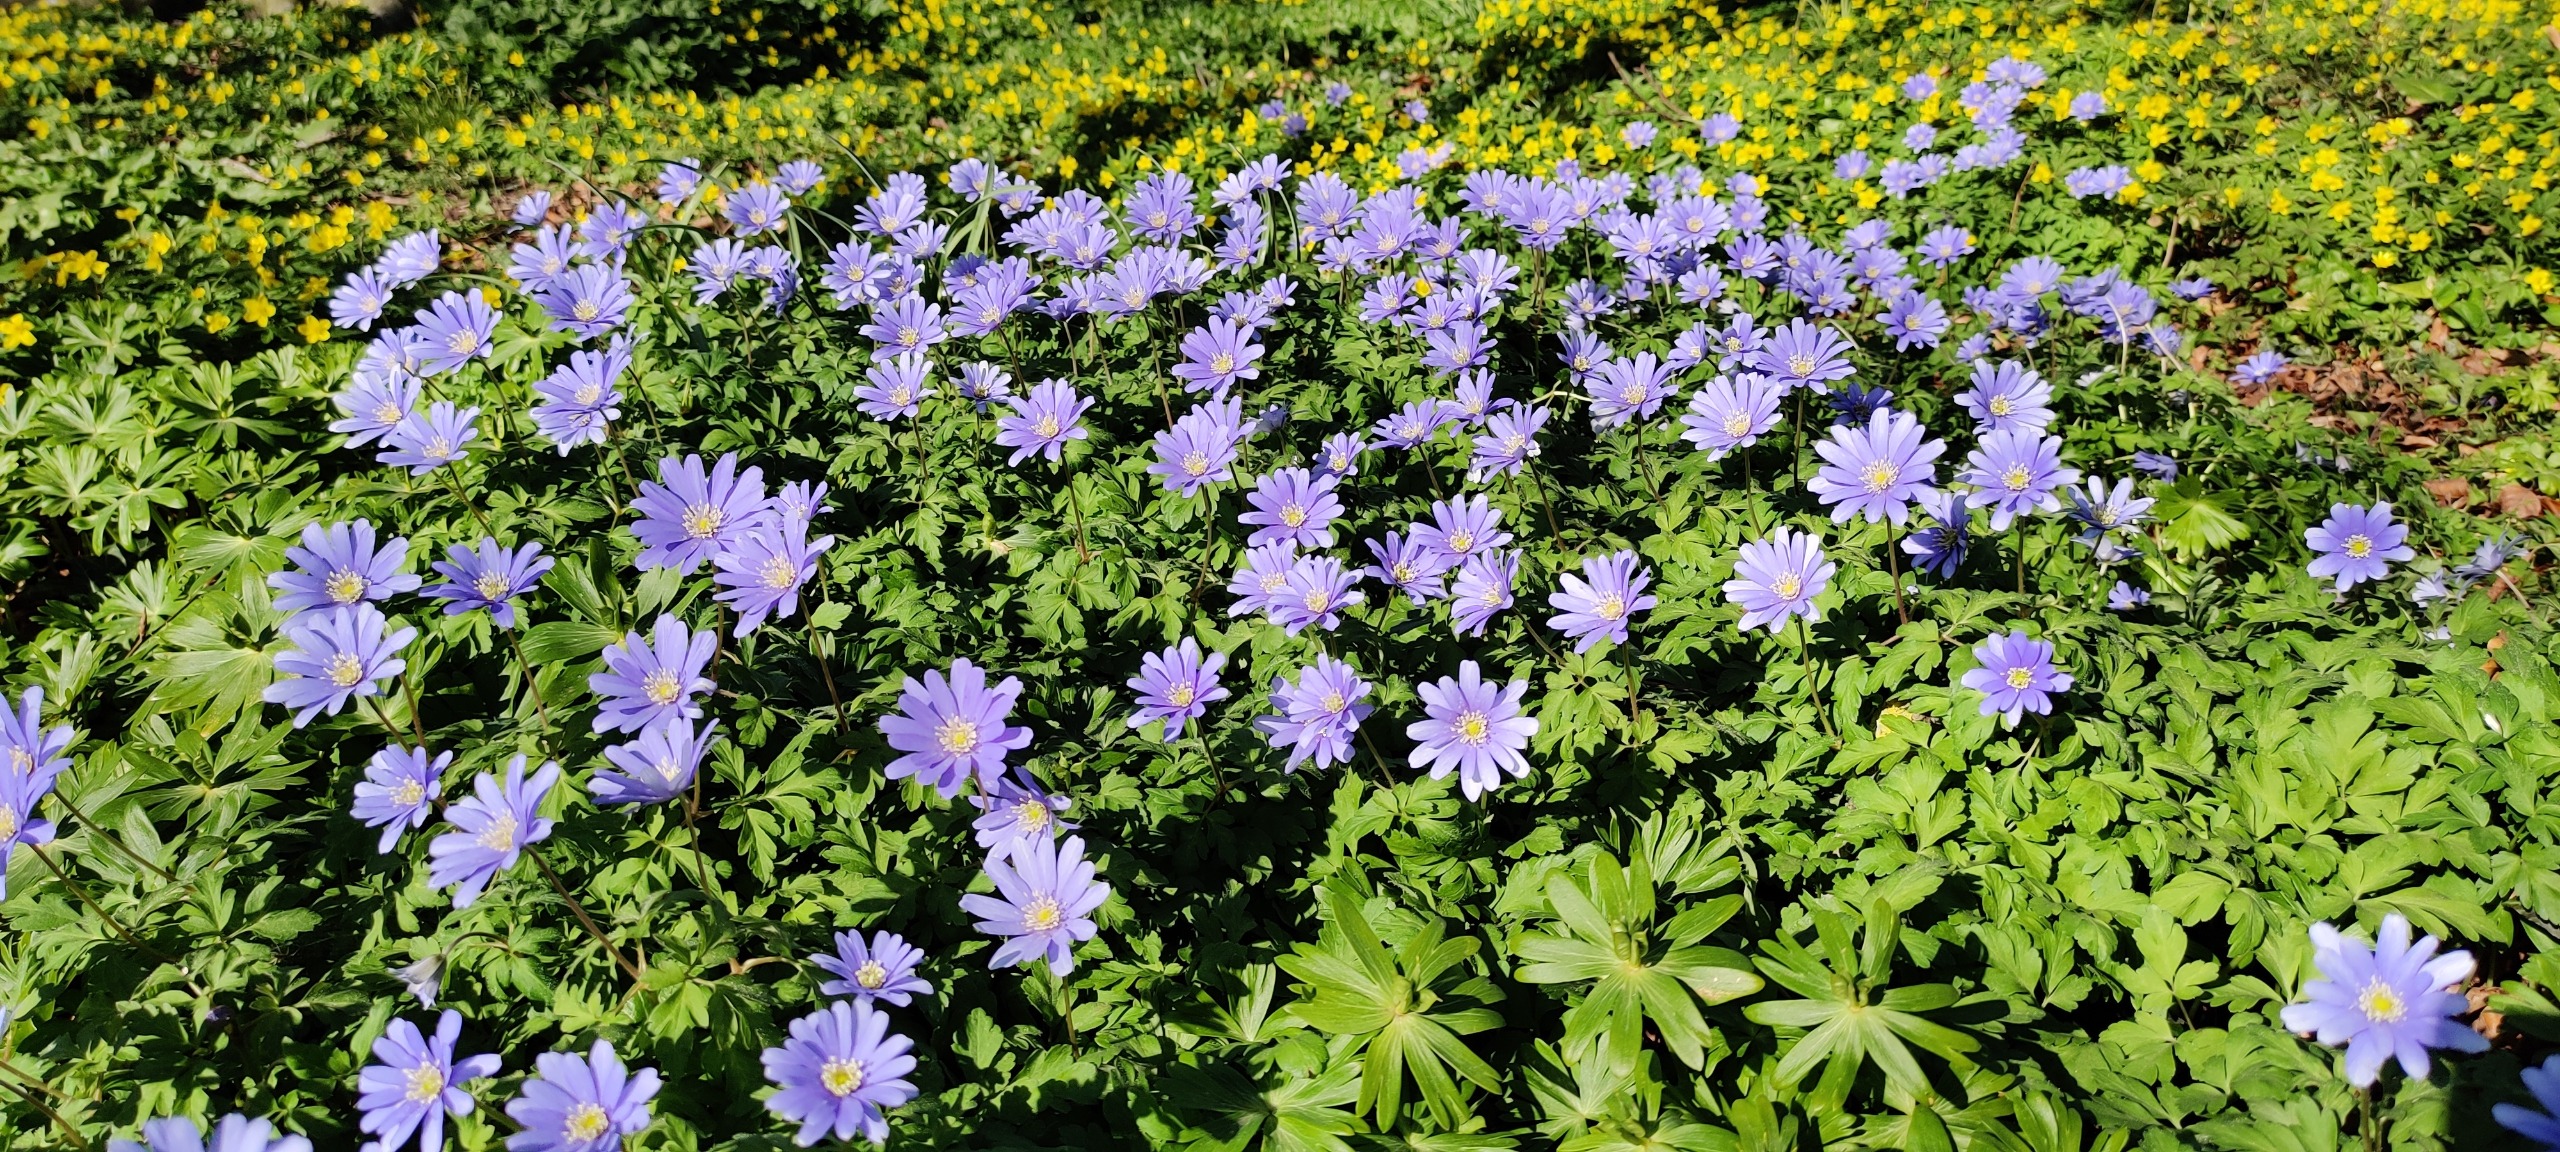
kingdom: Plantae
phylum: Tracheophyta
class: Magnoliopsida
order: Ranunculales
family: Ranunculaceae
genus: Anemone
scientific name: Anemone apennina
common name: Apenniner-anemone
